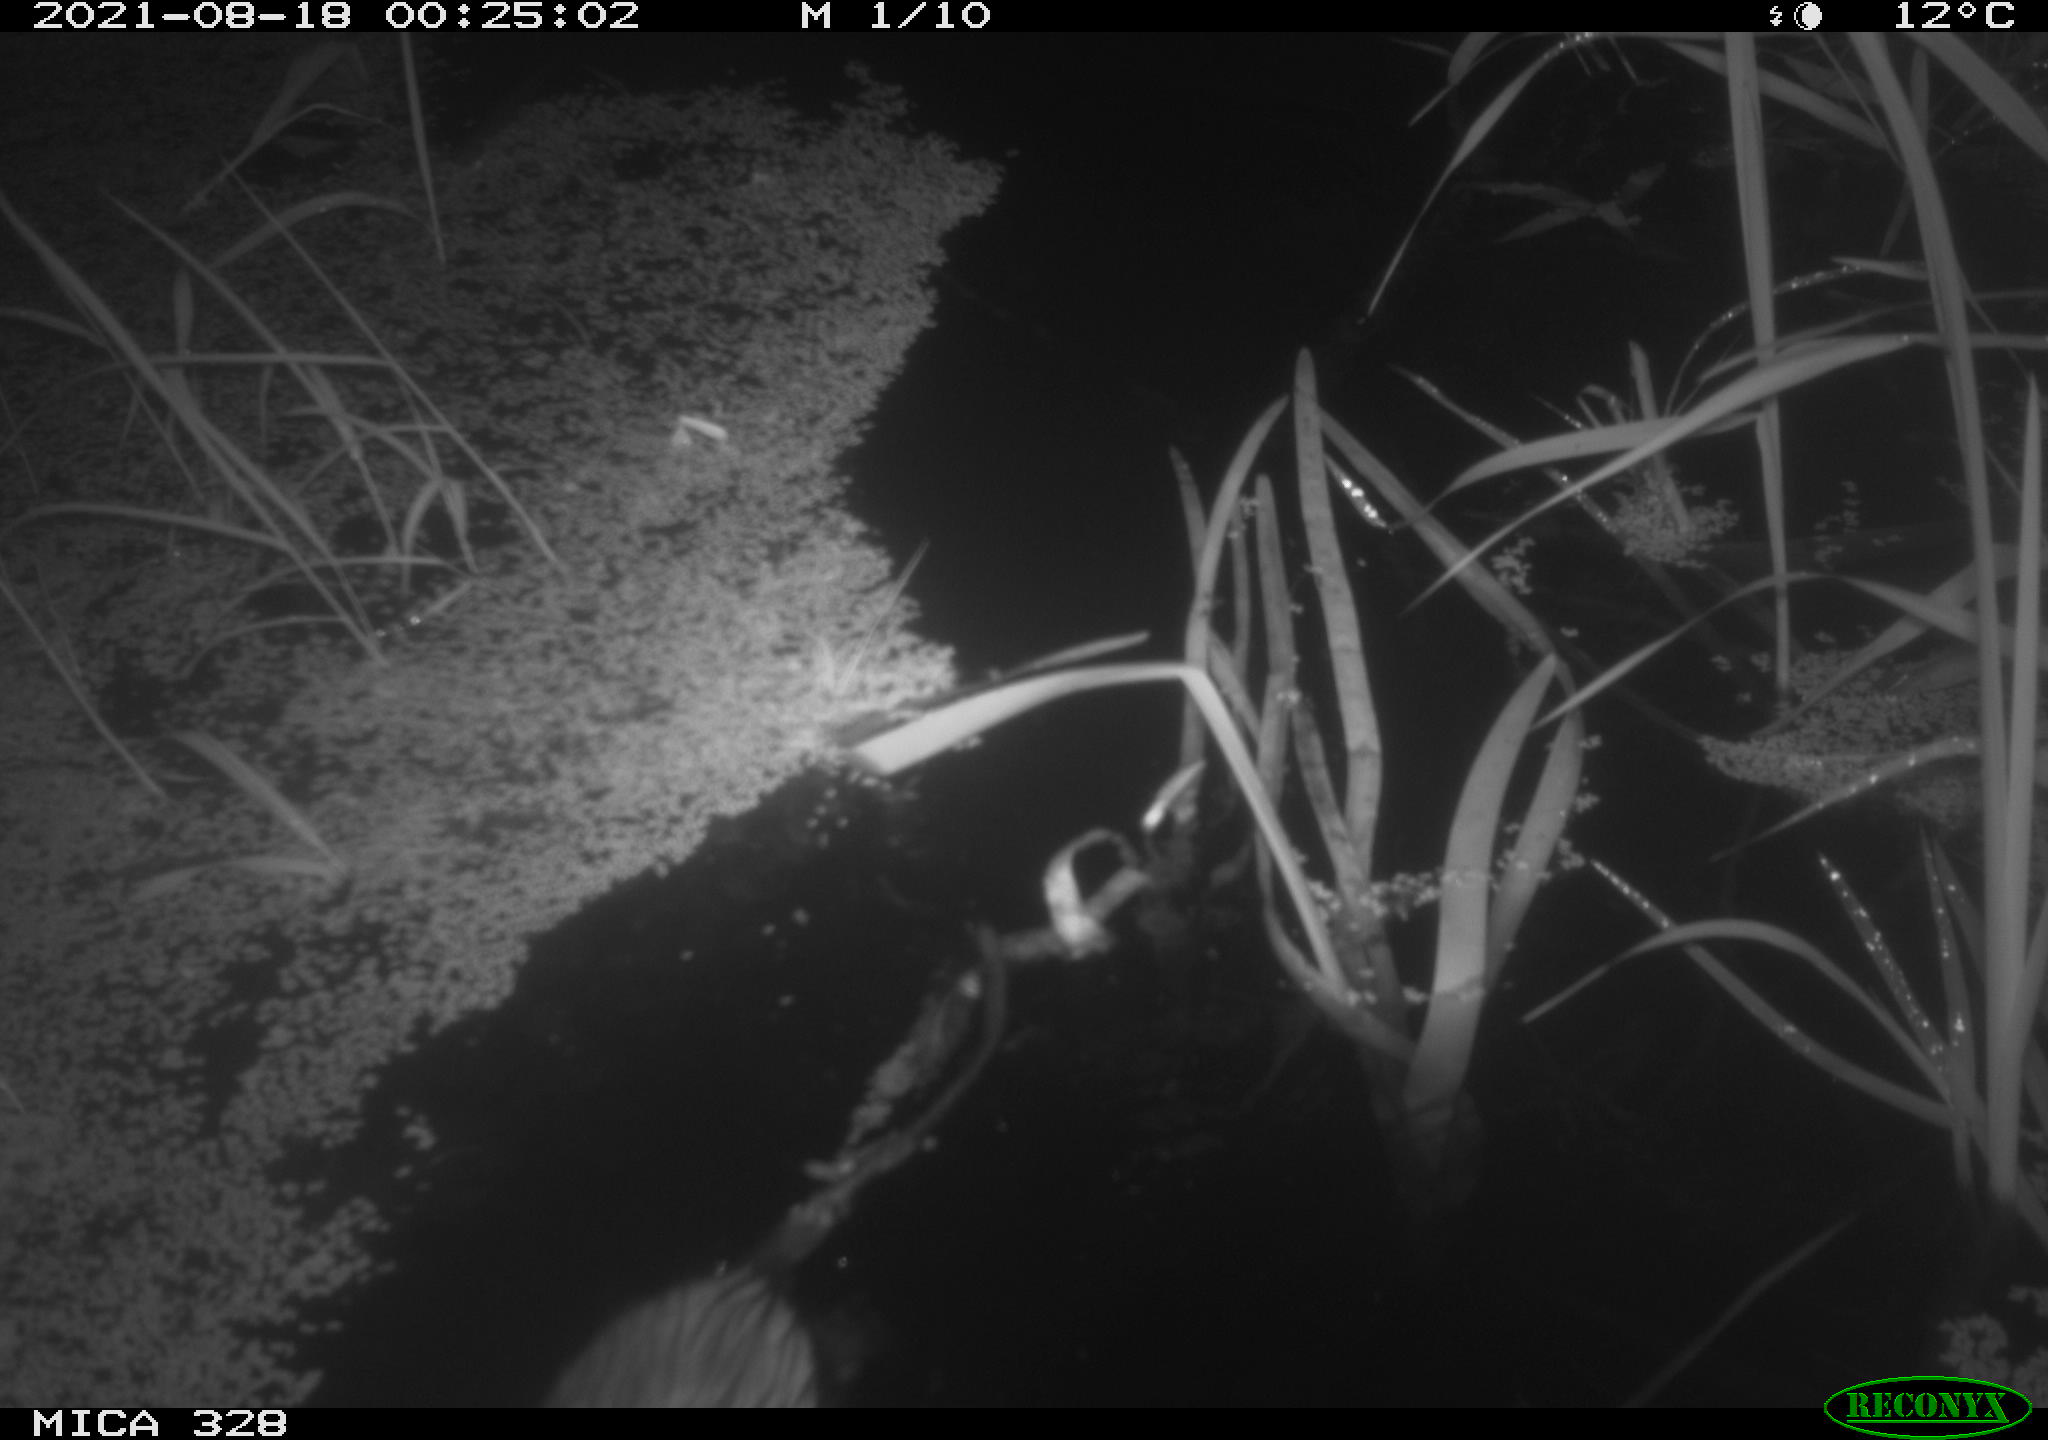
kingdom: Animalia
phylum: Chordata
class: Mammalia
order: Rodentia
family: Cricetidae
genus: Ondatra
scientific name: Ondatra zibethicus
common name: Muskrat
